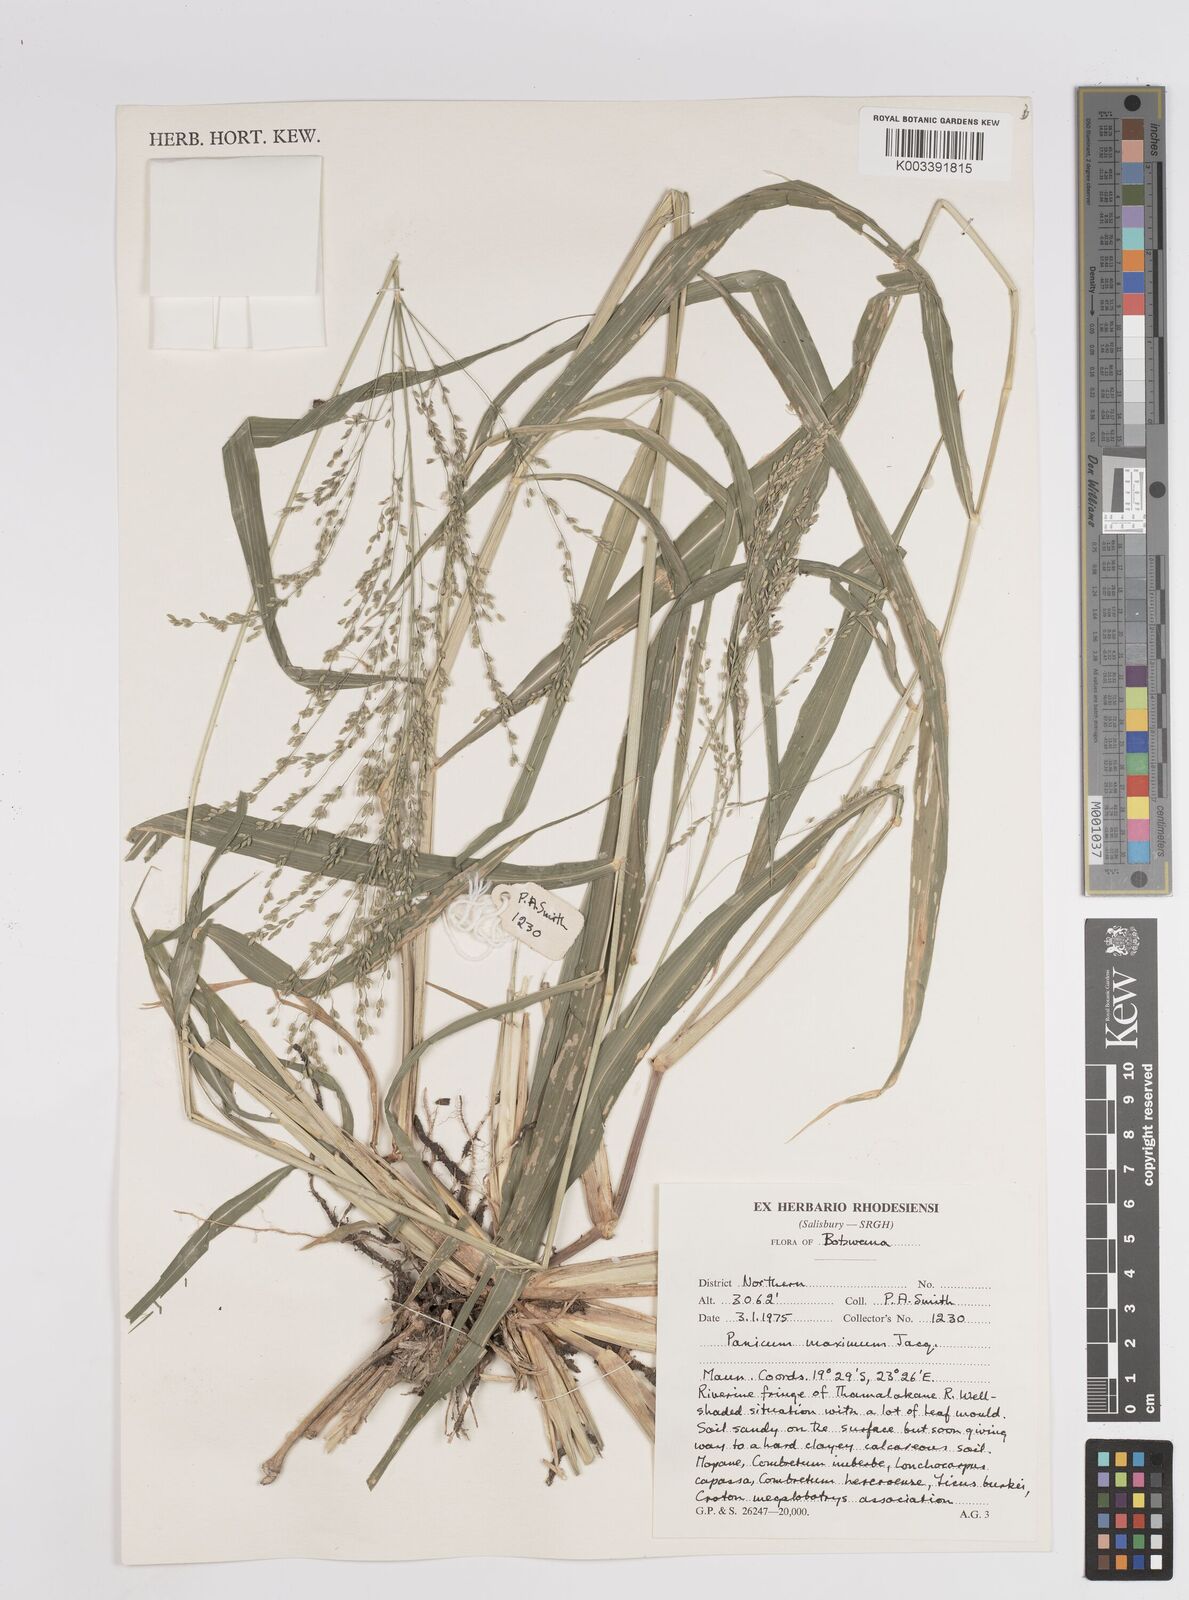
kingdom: Plantae
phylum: Tracheophyta
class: Liliopsida
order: Poales
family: Poaceae
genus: Megathyrsus
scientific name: Megathyrsus maximus
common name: Guineagrass
